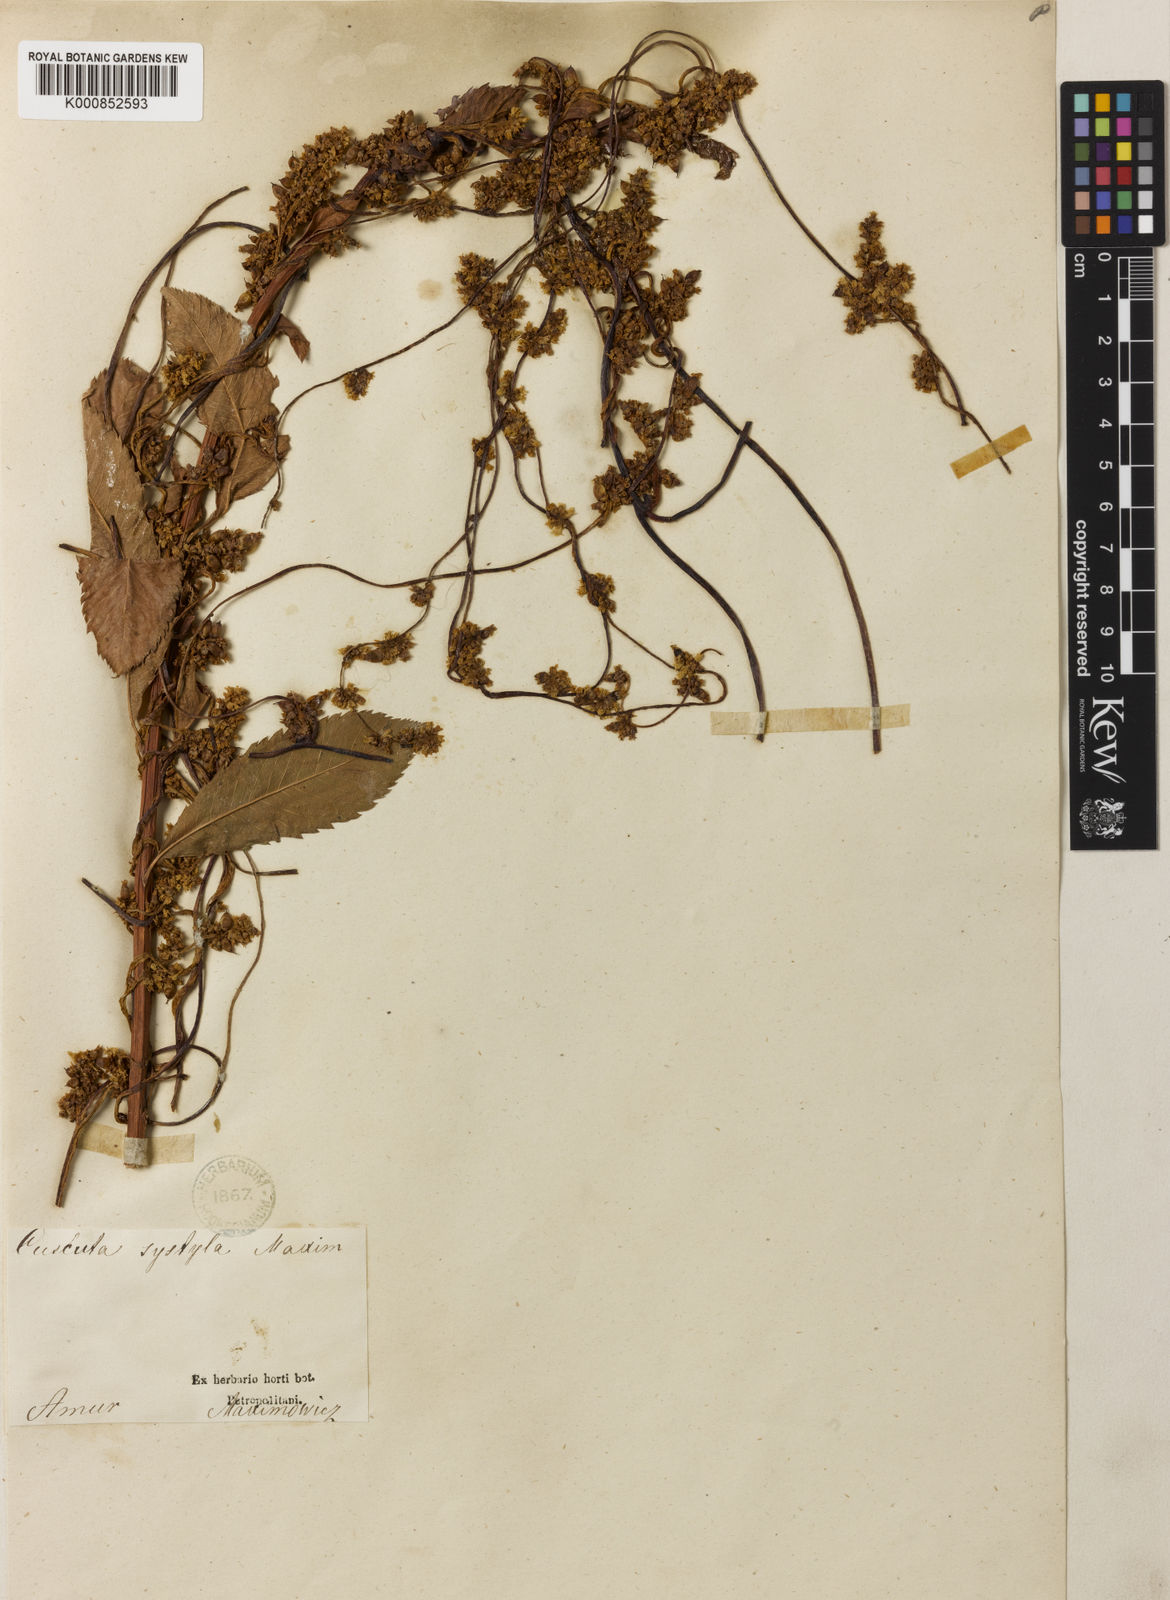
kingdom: Plantae
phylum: Tracheophyta
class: Magnoliopsida
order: Solanales
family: Convolvulaceae
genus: Cuscuta
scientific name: Cuscuta japonica
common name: Japanese dodder
